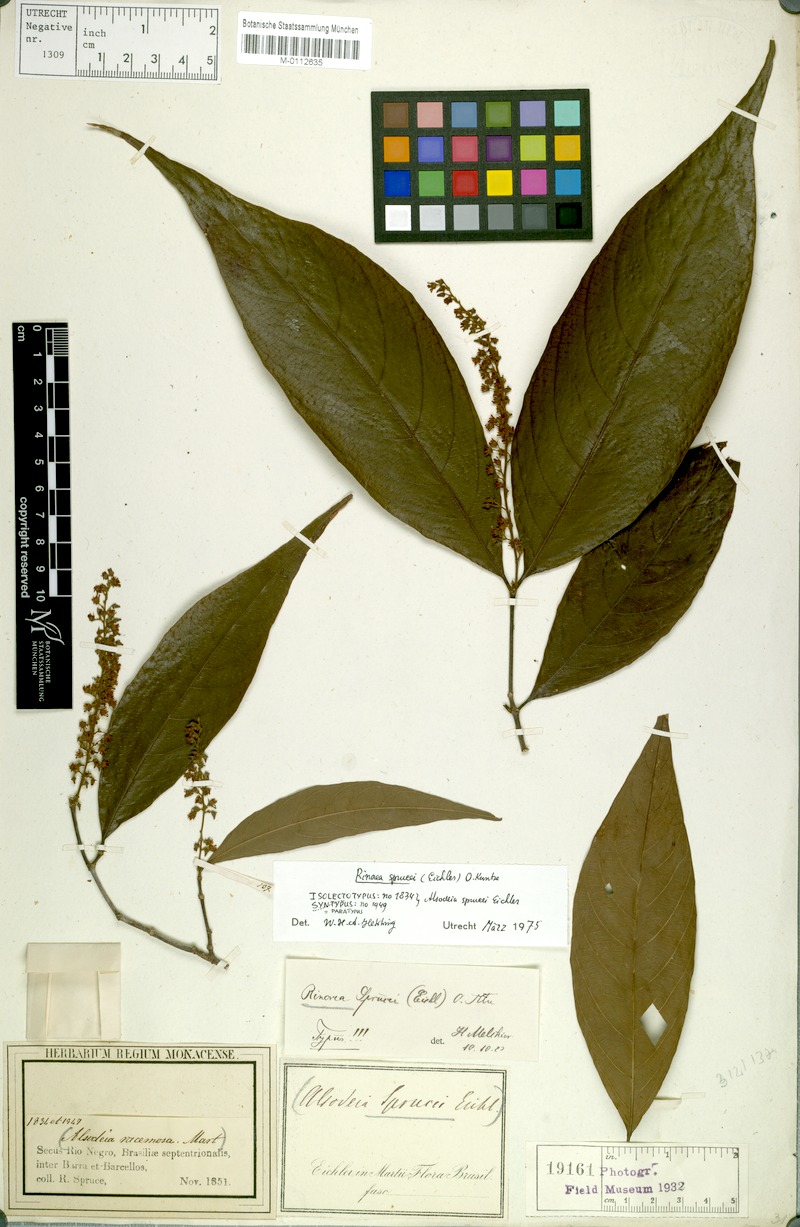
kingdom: Plantae
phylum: Tracheophyta
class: Magnoliopsida
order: Malpighiales
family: Violaceae
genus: Rinorea
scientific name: Rinorea sprucei
